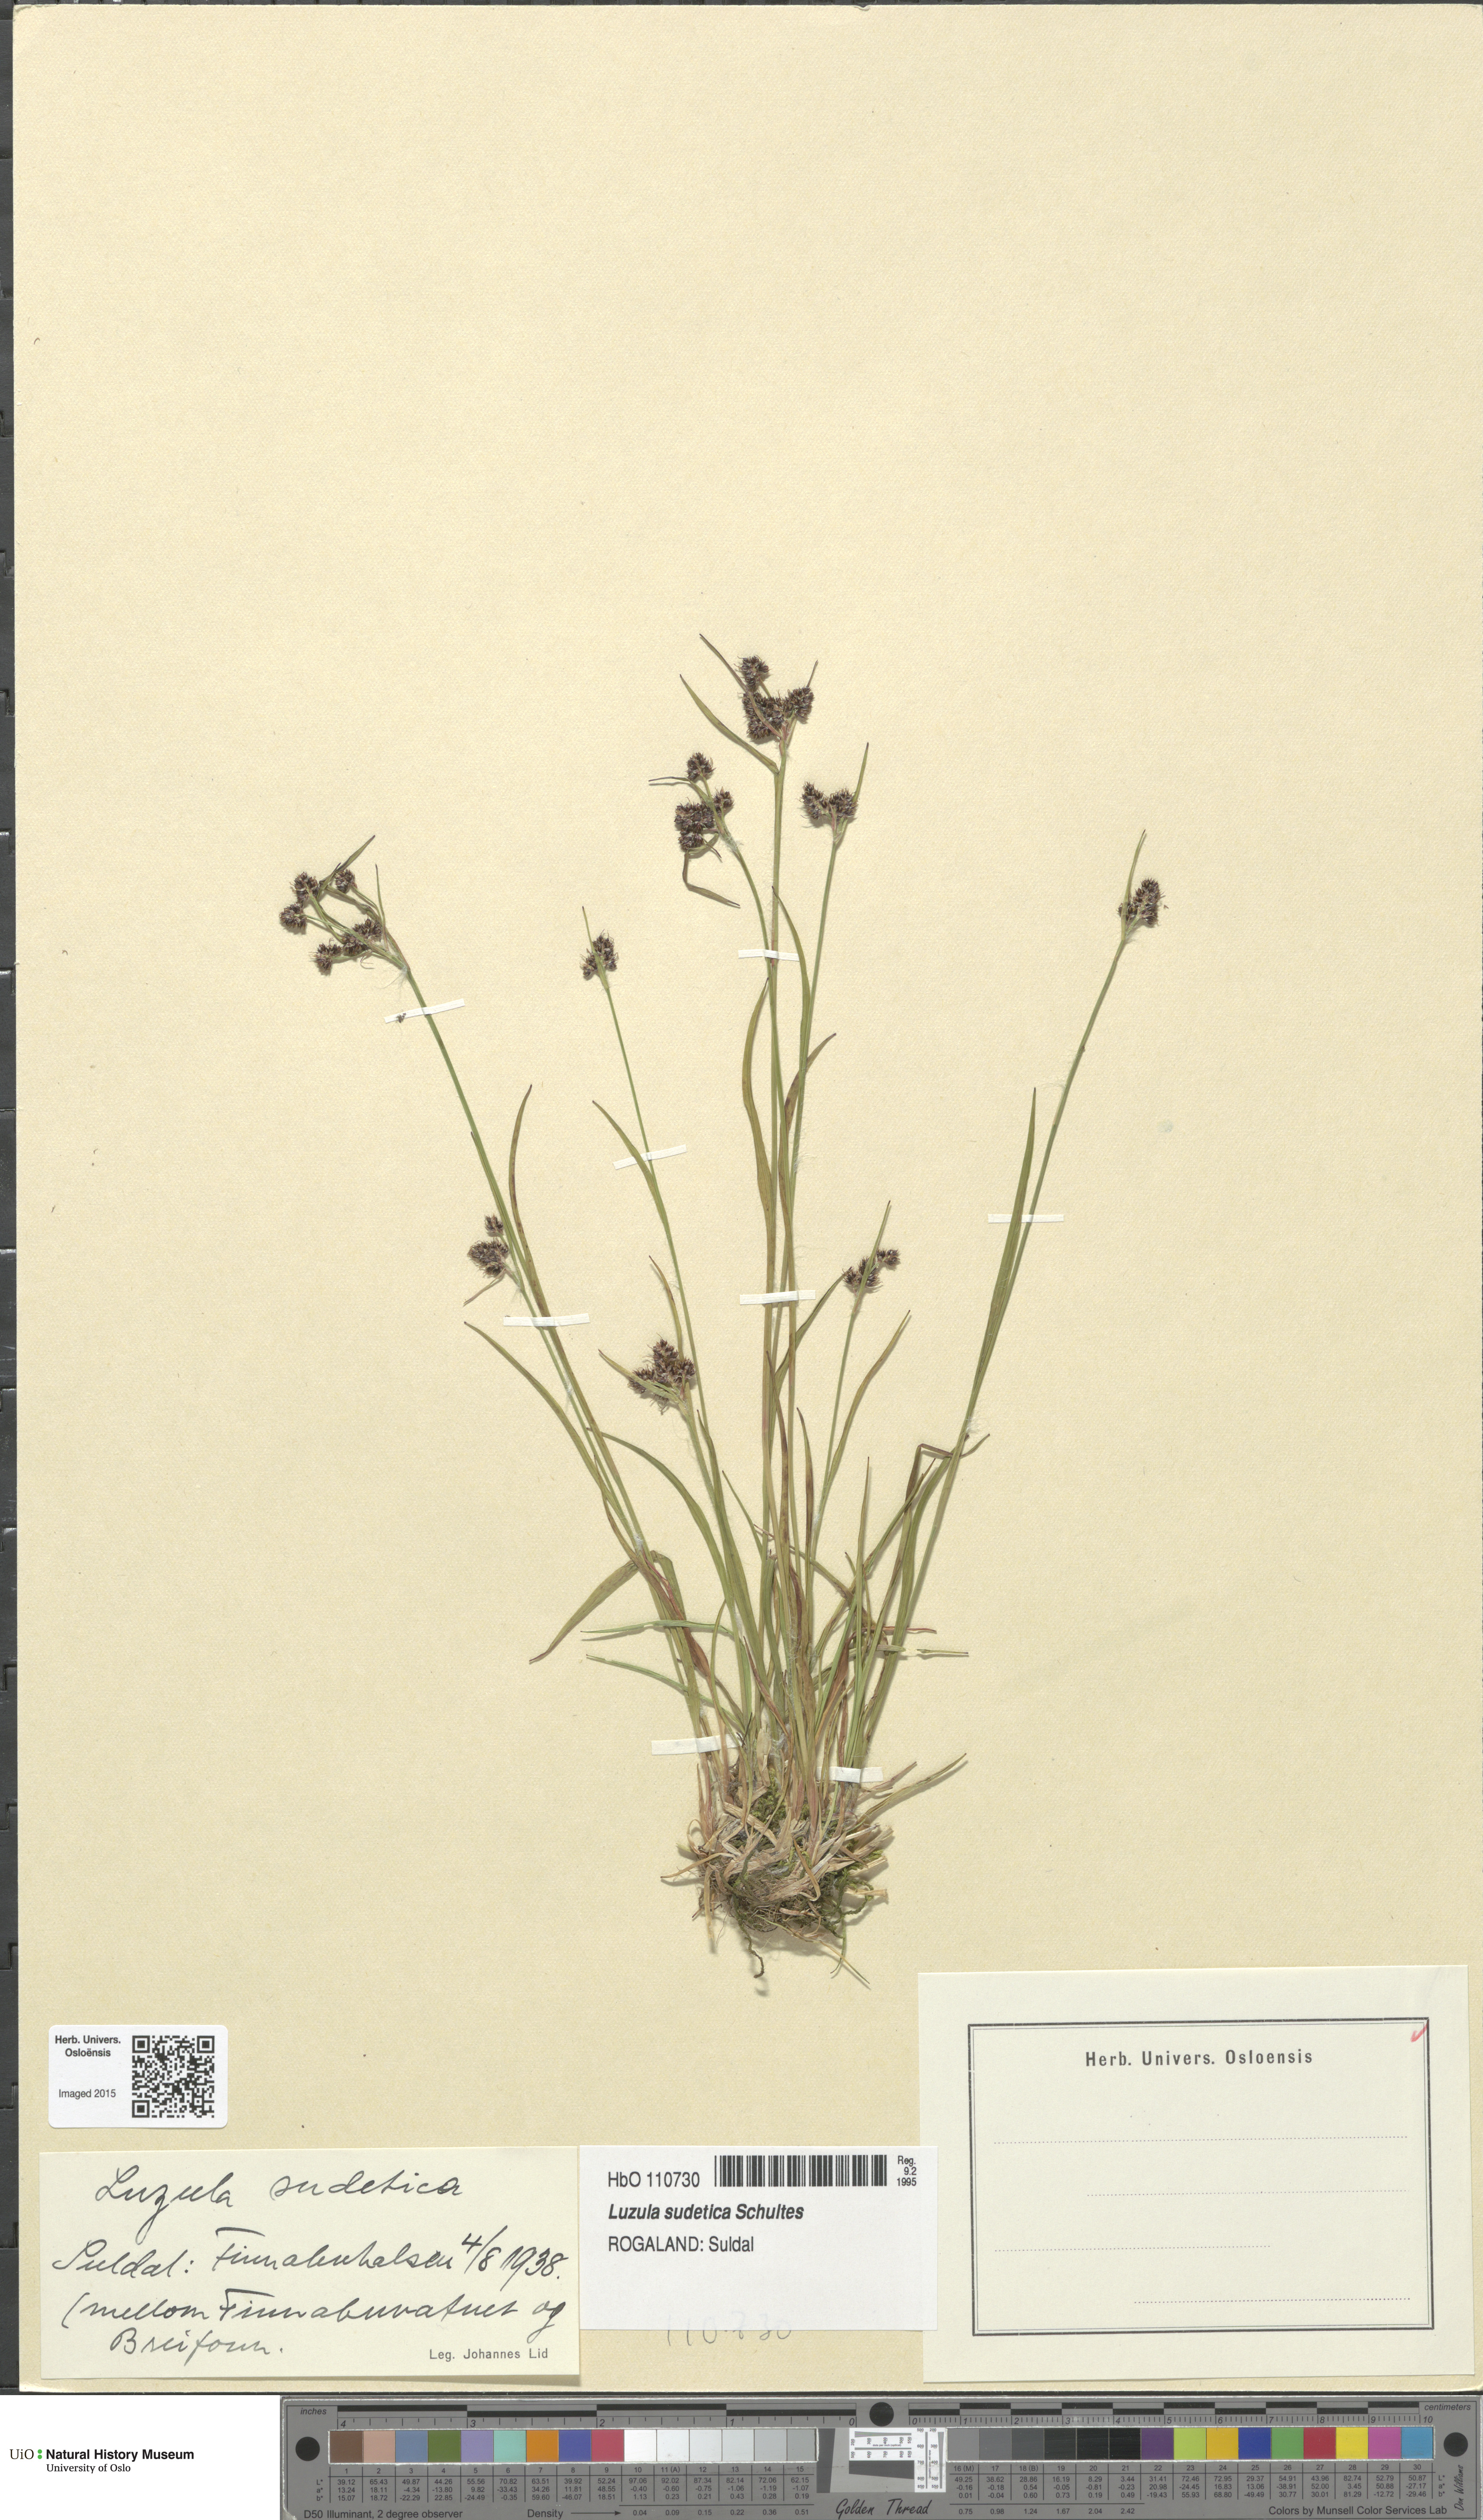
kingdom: Plantae
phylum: Tracheophyta
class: Liliopsida
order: Poales
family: Juncaceae
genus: Luzula
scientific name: Luzula sudetica
